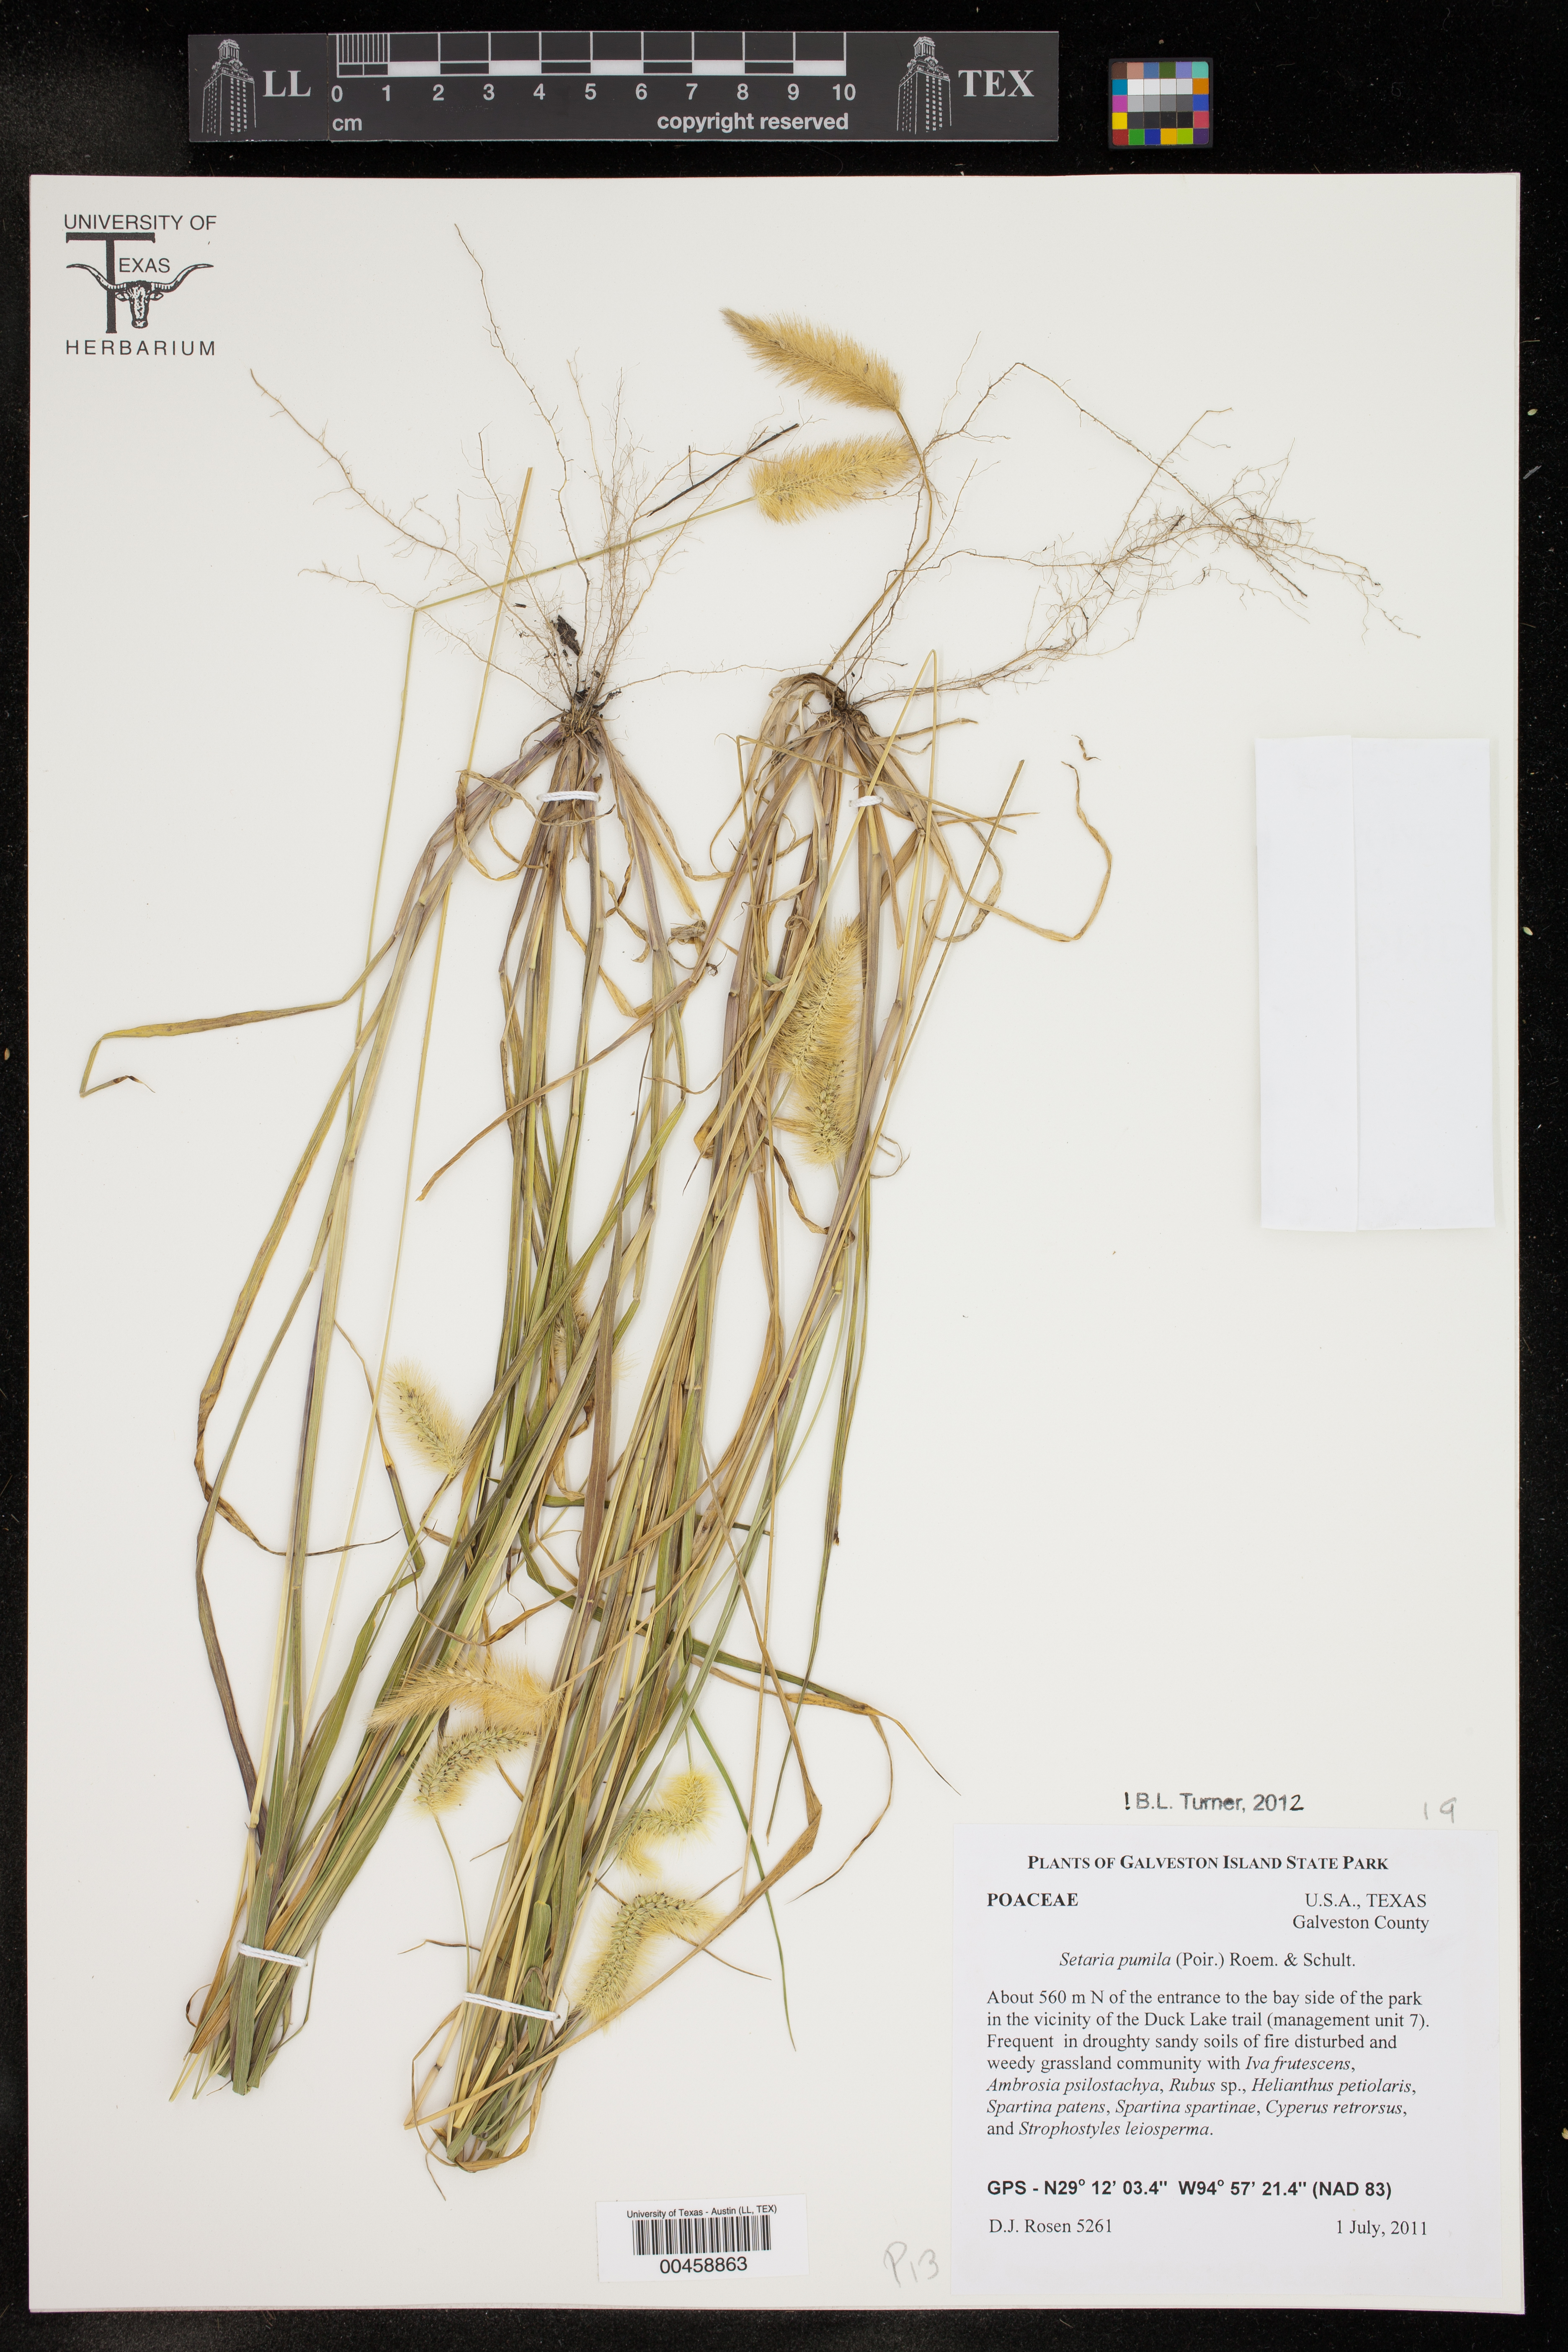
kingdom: Plantae
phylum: Tracheophyta
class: Liliopsida
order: Poales
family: Poaceae
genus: Setaria
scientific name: Setaria pumila
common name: Yellow bristle-grass
